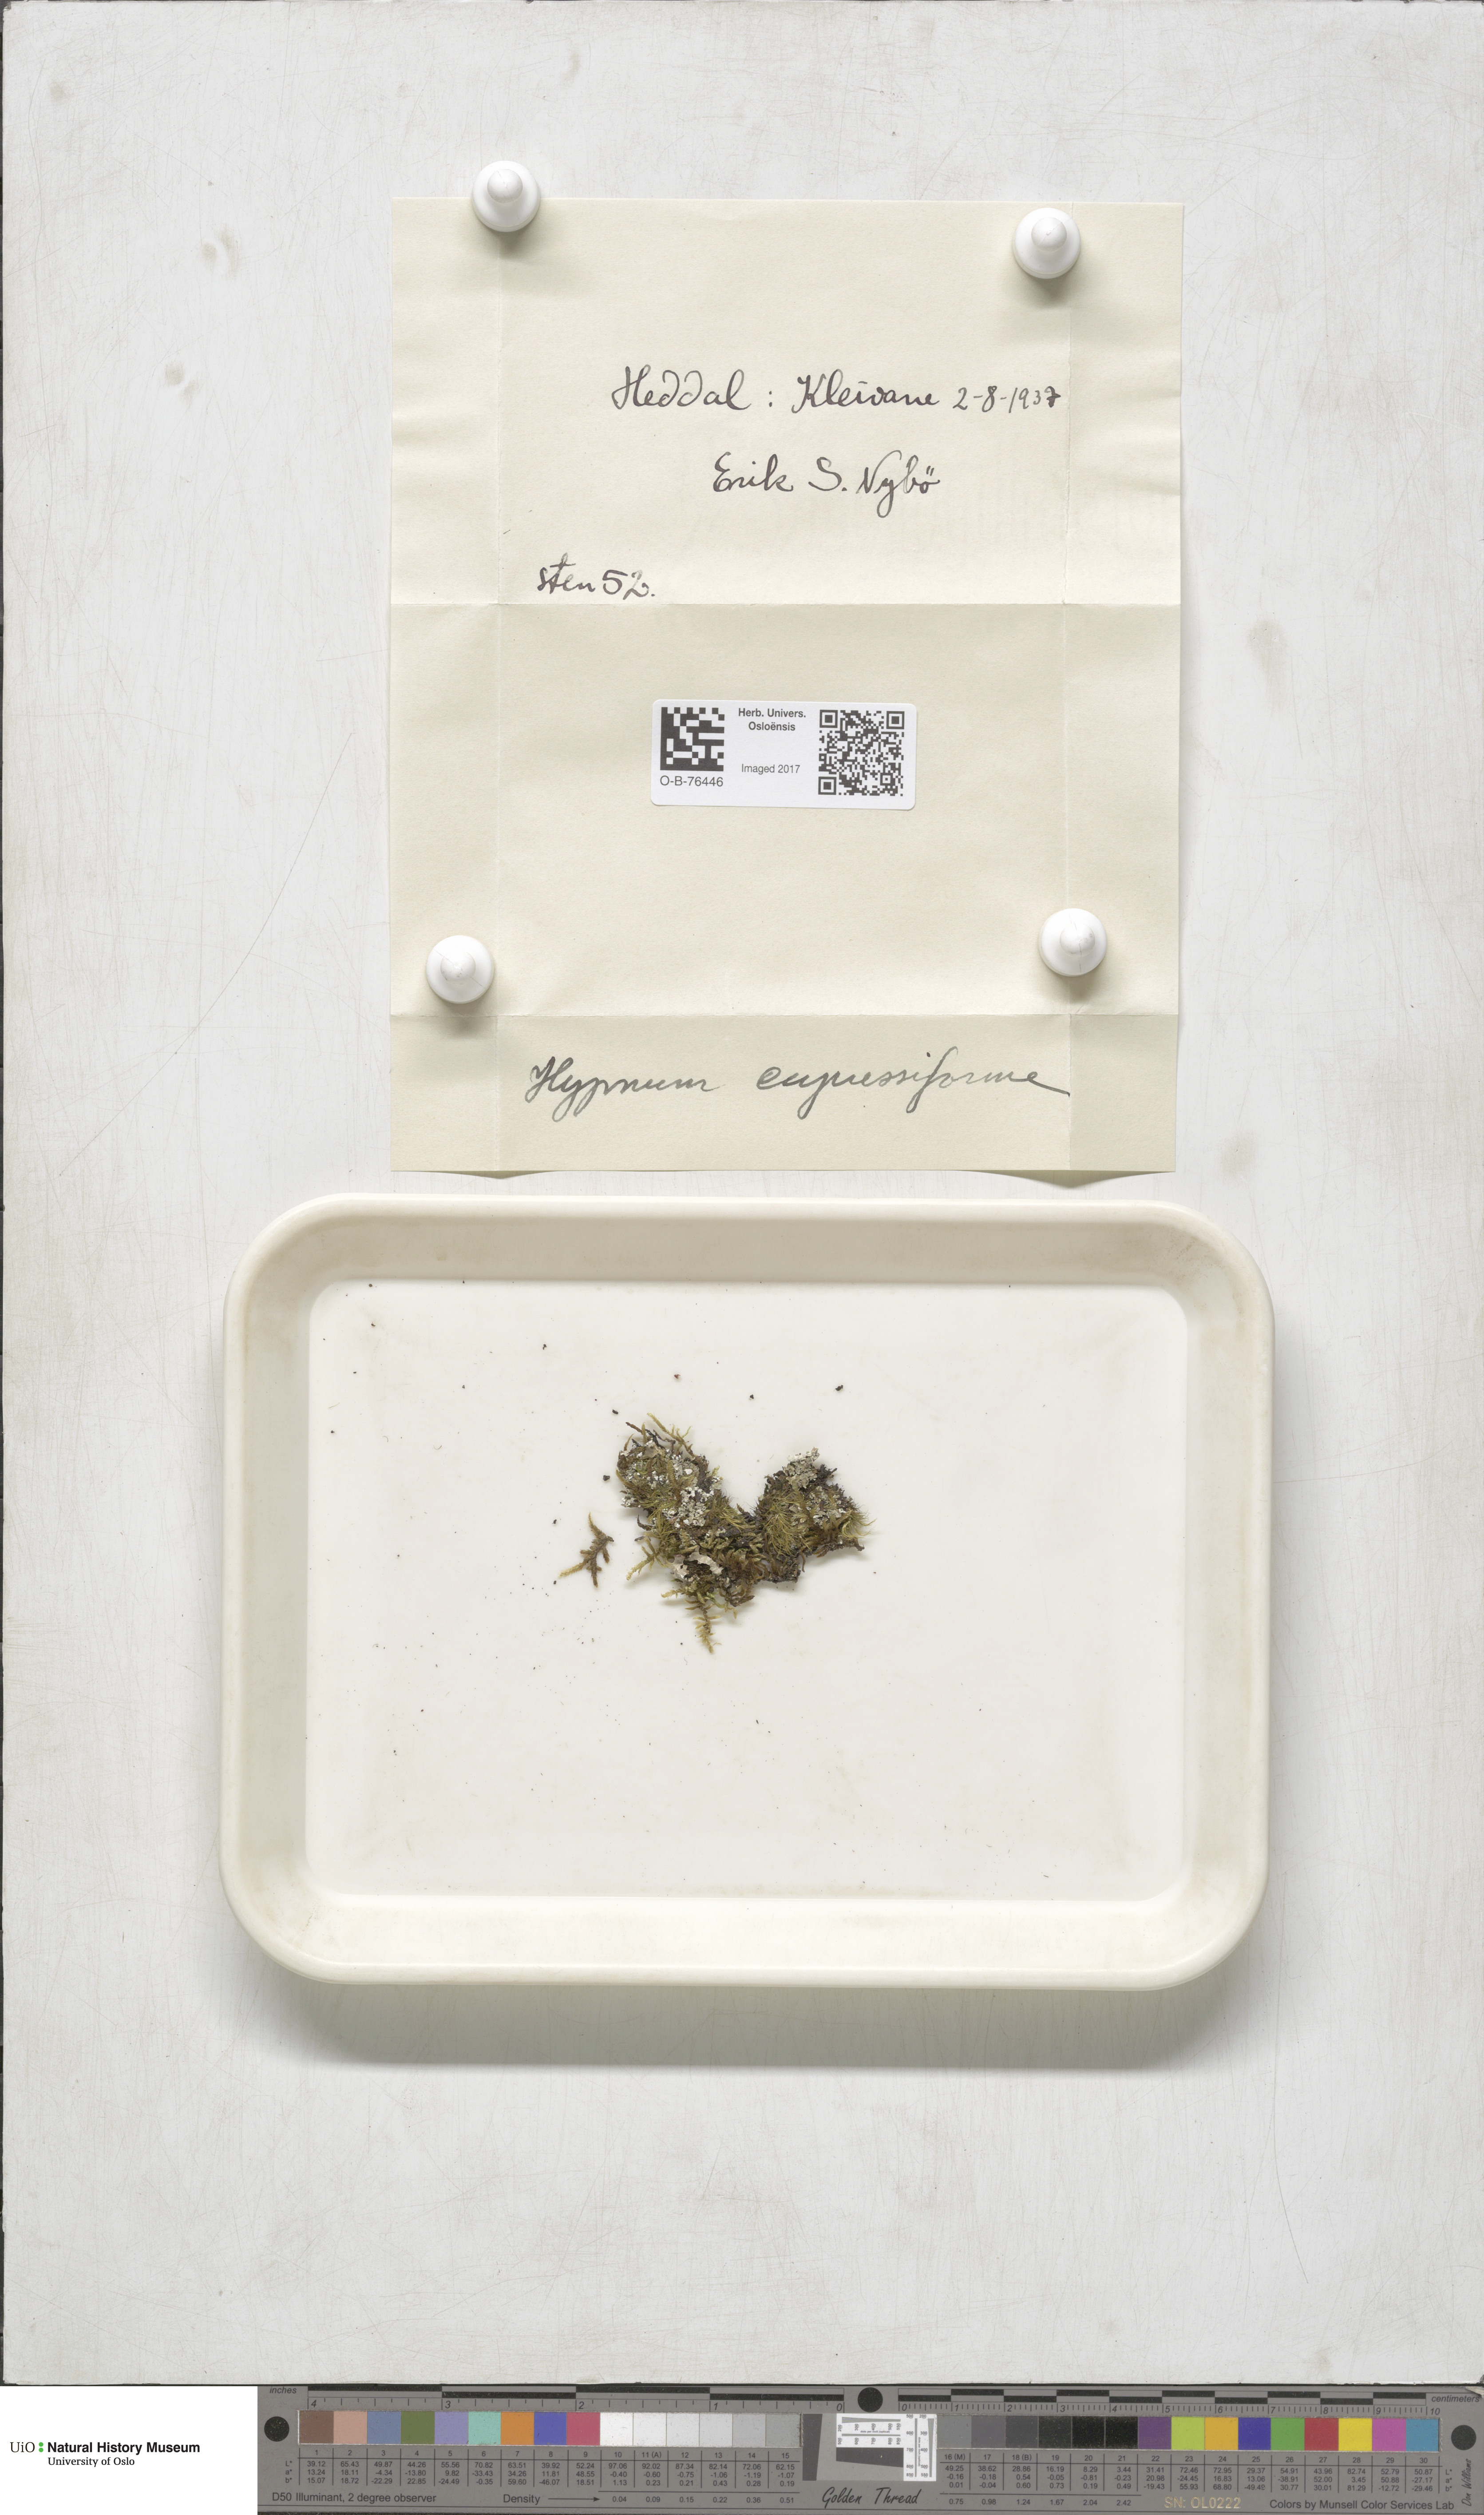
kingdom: Plantae
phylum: Bryophyta
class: Bryopsida
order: Hypnales
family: Hypnaceae
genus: Hypnum
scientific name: Hypnum cupressiforme
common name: Cypress-leaved plait-moss
